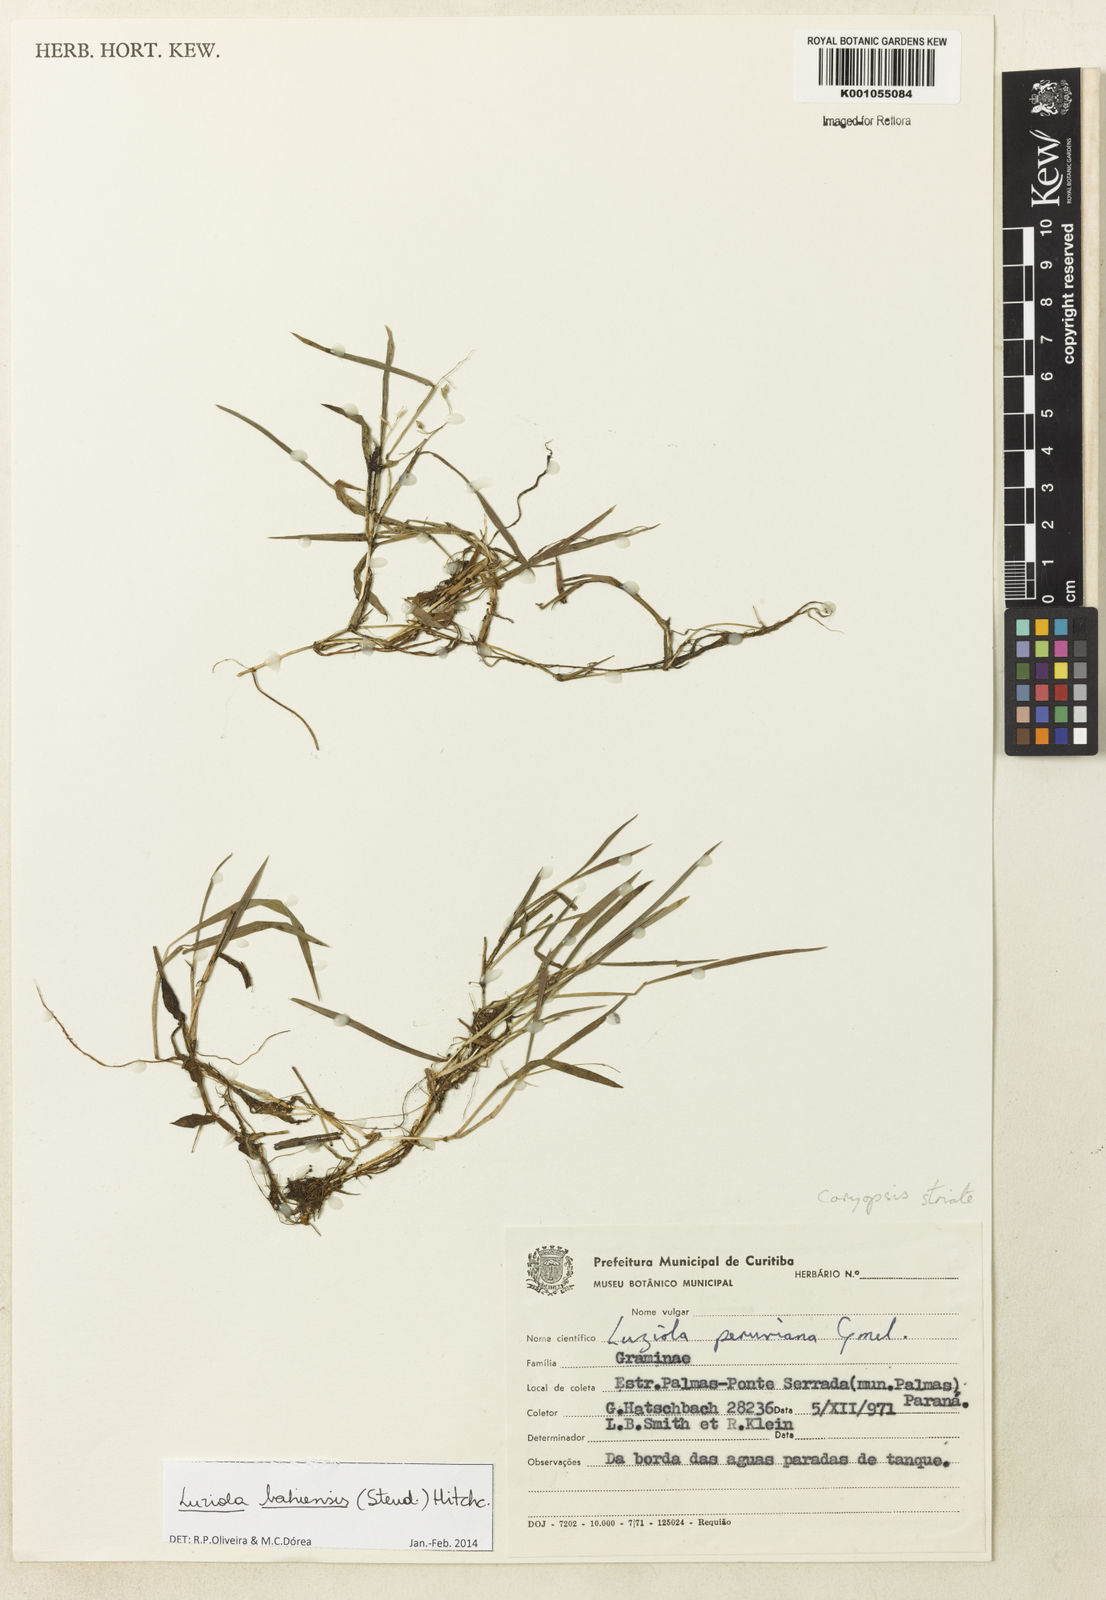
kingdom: Plantae
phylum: Tracheophyta
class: Liliopsida
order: Poales
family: Poaceae
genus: Luziola
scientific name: Luziola bahiensis
